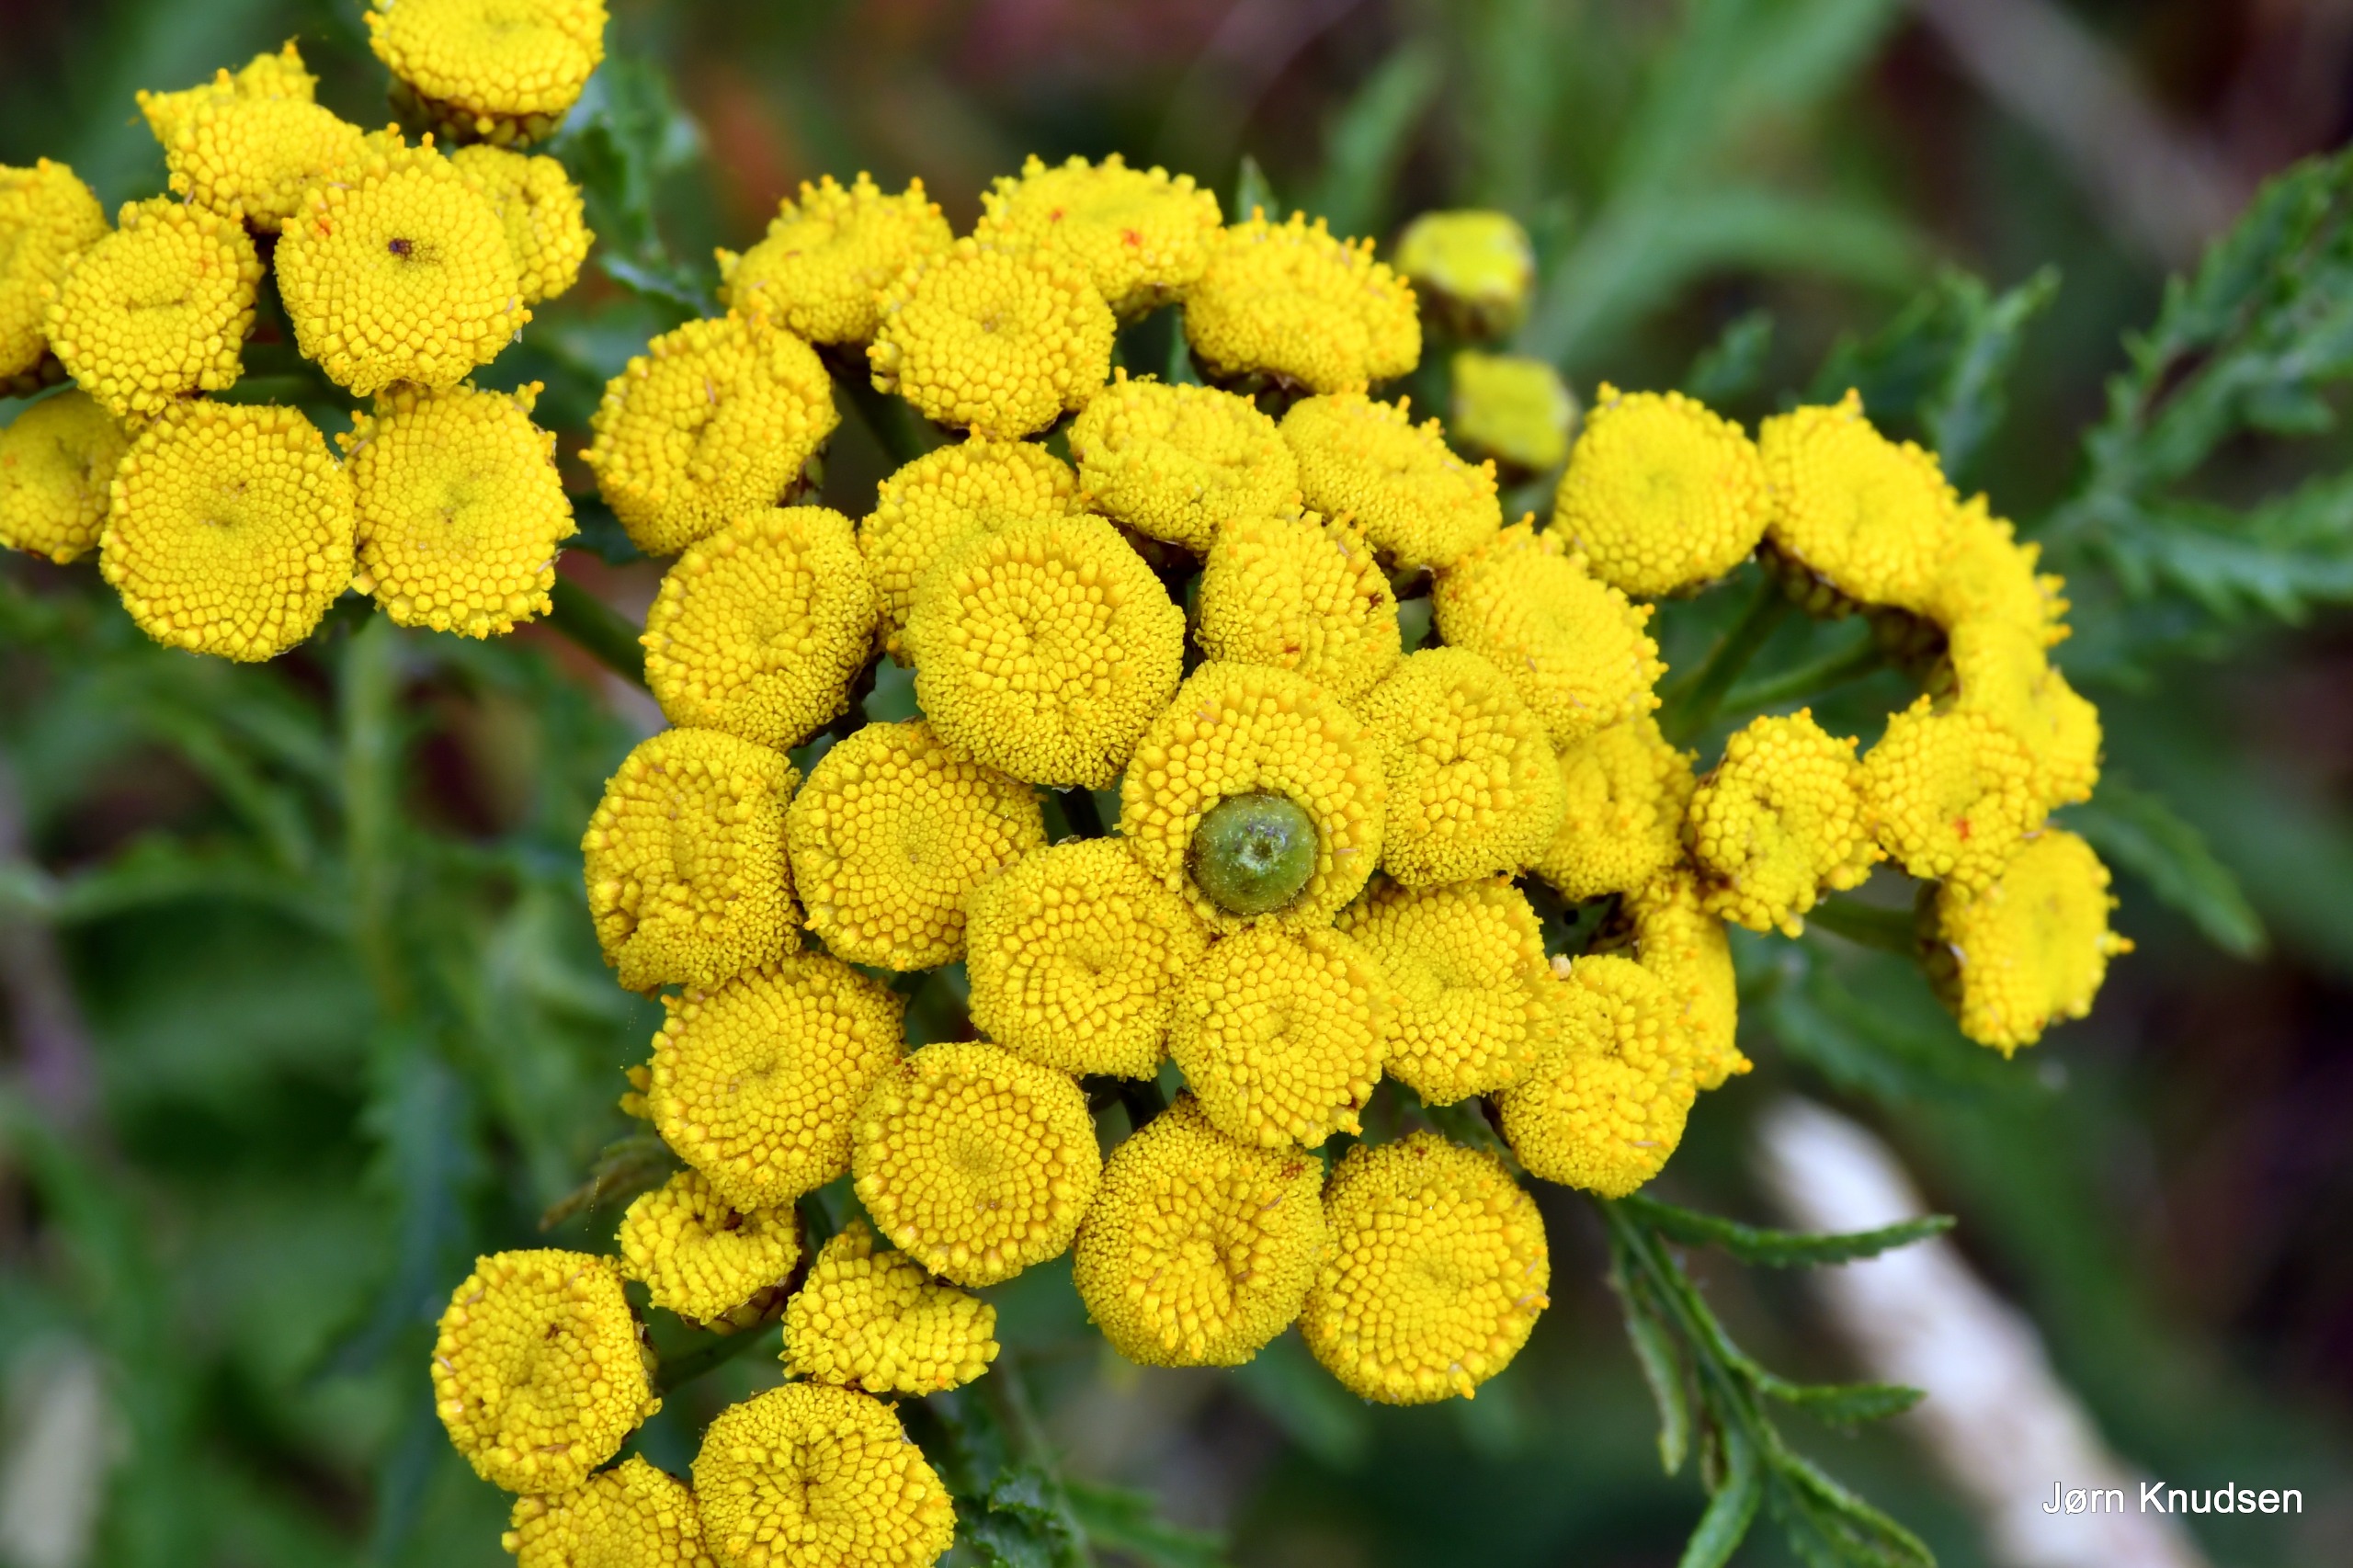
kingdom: Plantae
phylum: Tracheophyta
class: Magnoliopsida
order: Asterales
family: Asteraceae
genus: Tanacetum
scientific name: Tanacetum vulgare
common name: Rejnfan
